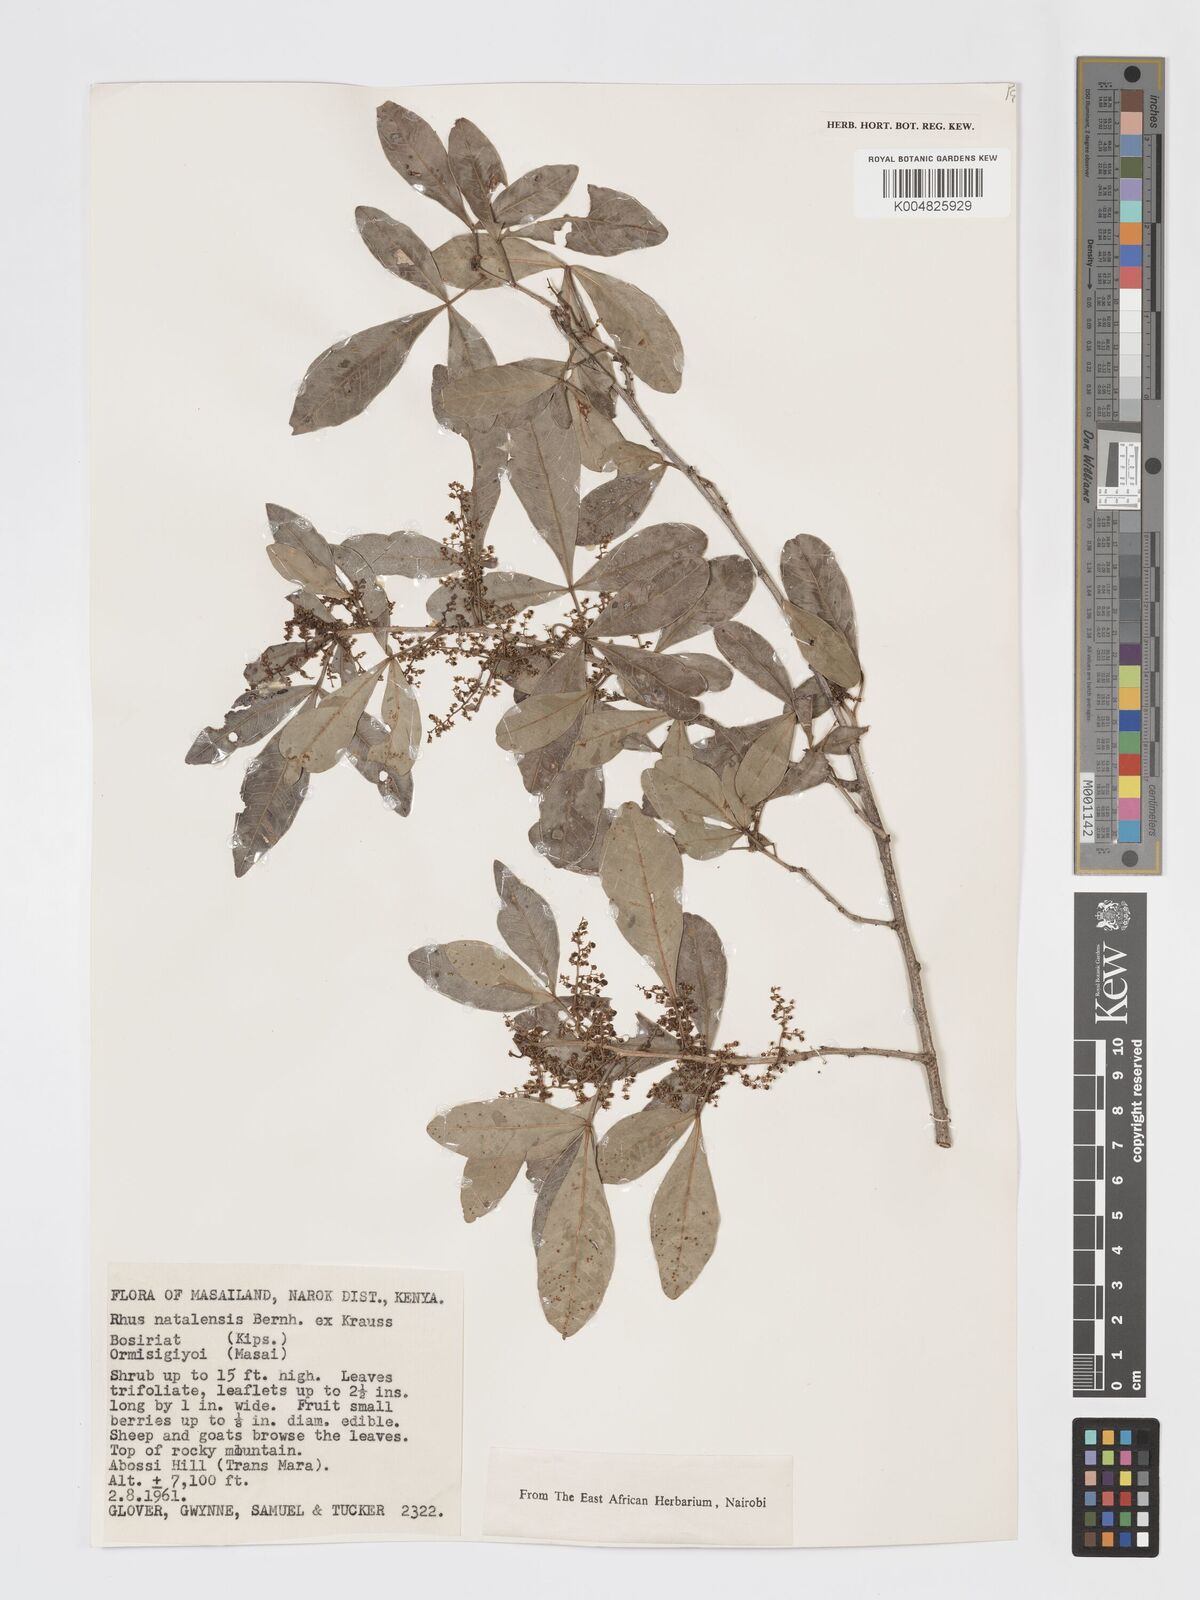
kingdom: Plantae
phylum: Tracheophyta
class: Magnoliopsida
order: Sapindales
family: Anacardiaceae
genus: Searsia
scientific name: Searsia natalensis
